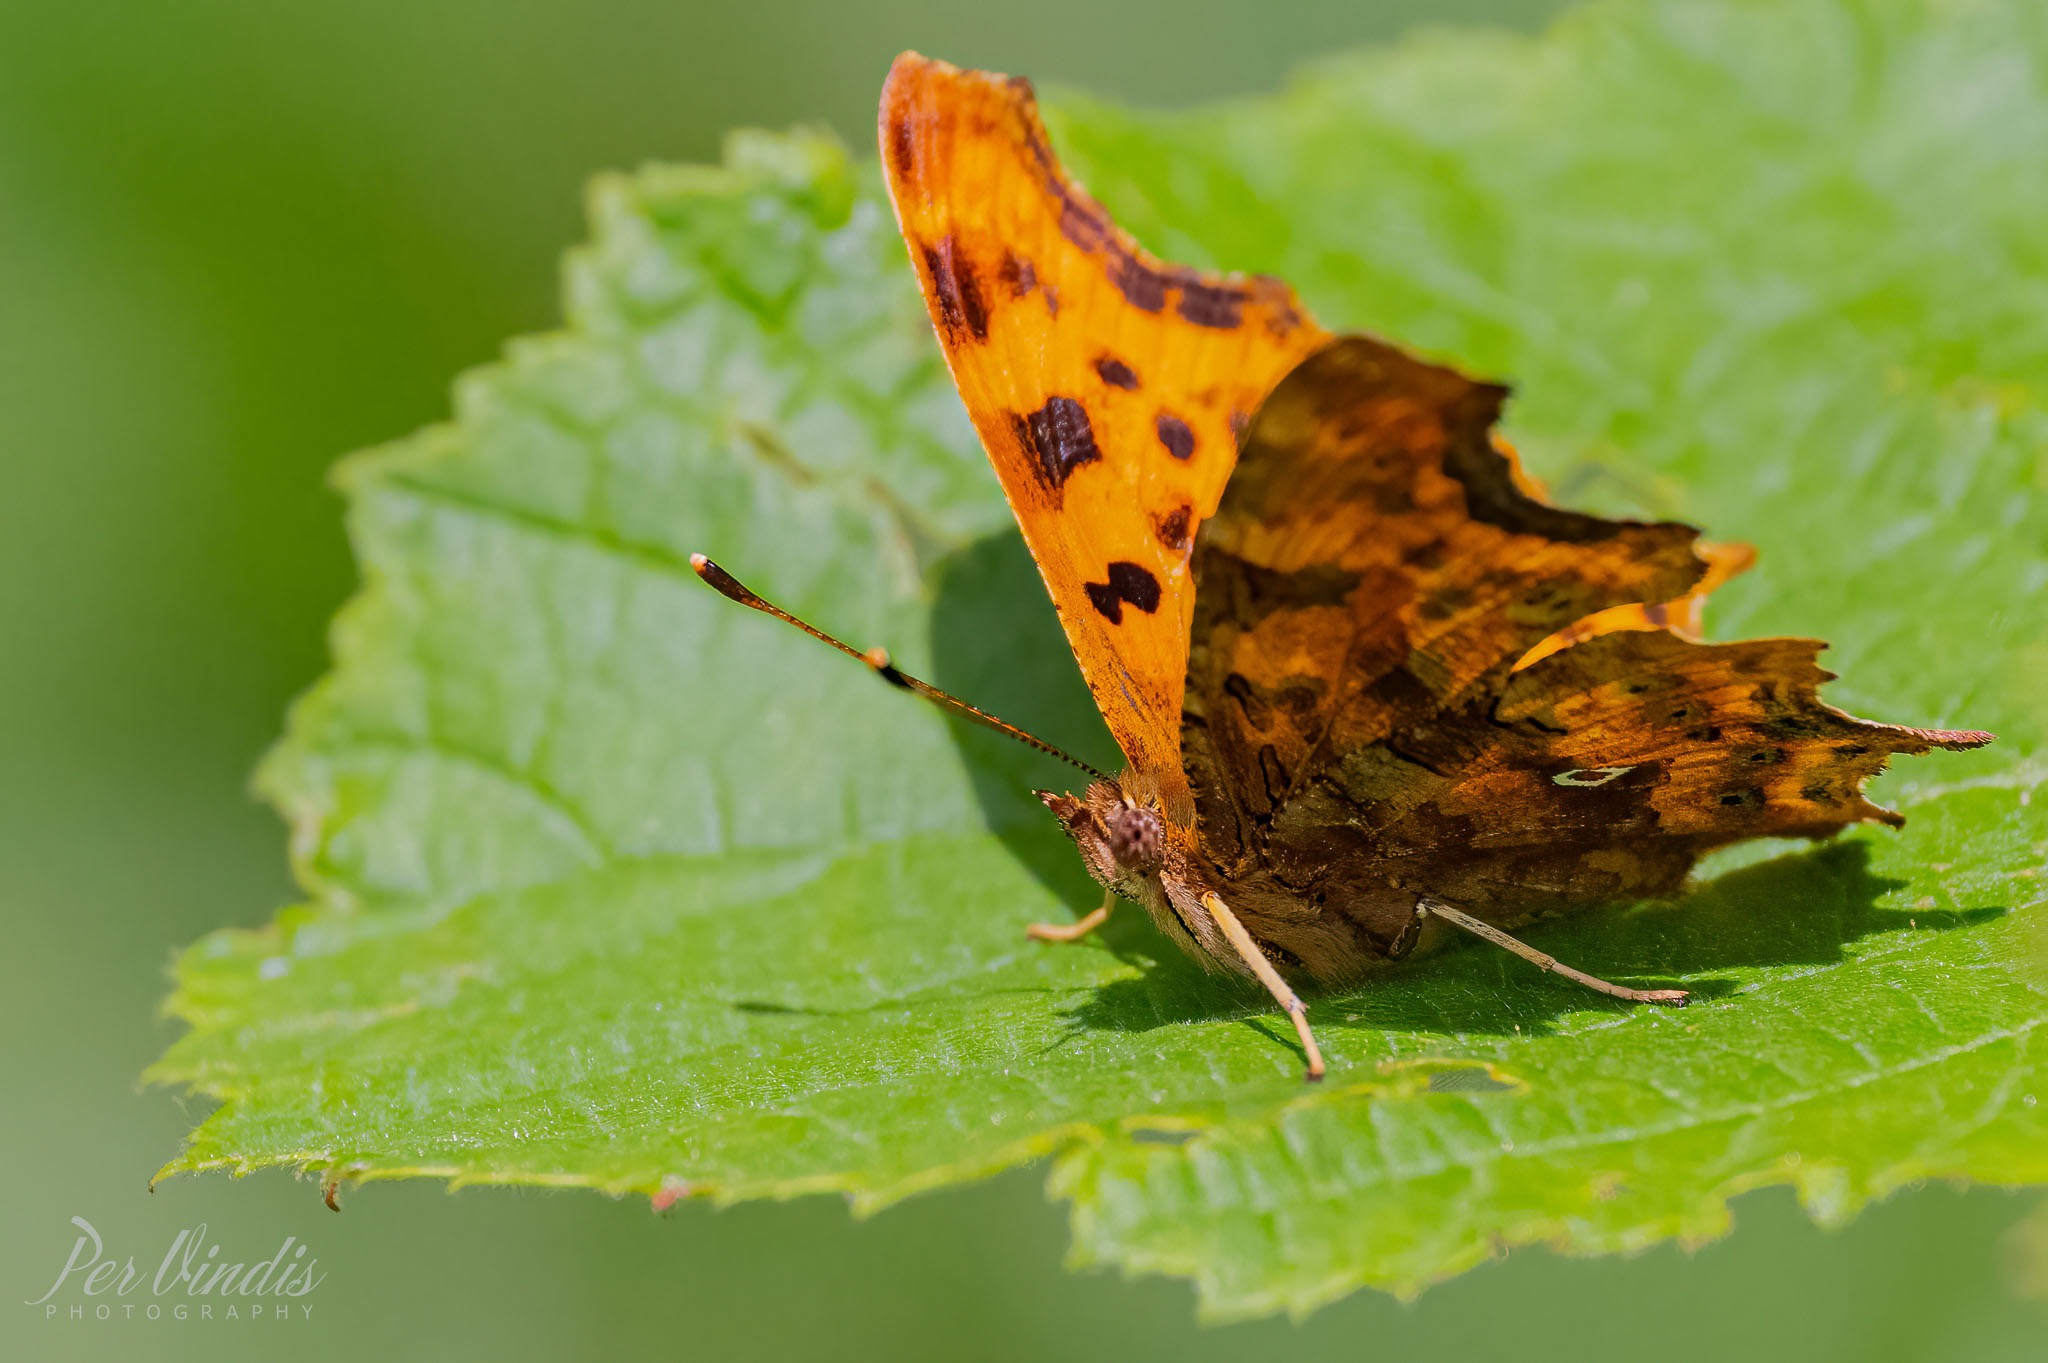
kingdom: Animalia
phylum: Arthropoda
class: Insecta
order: Lepidoptera
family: Nymphalidae
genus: Polygonia
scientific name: Polygonia c-album
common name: Det hvide C
